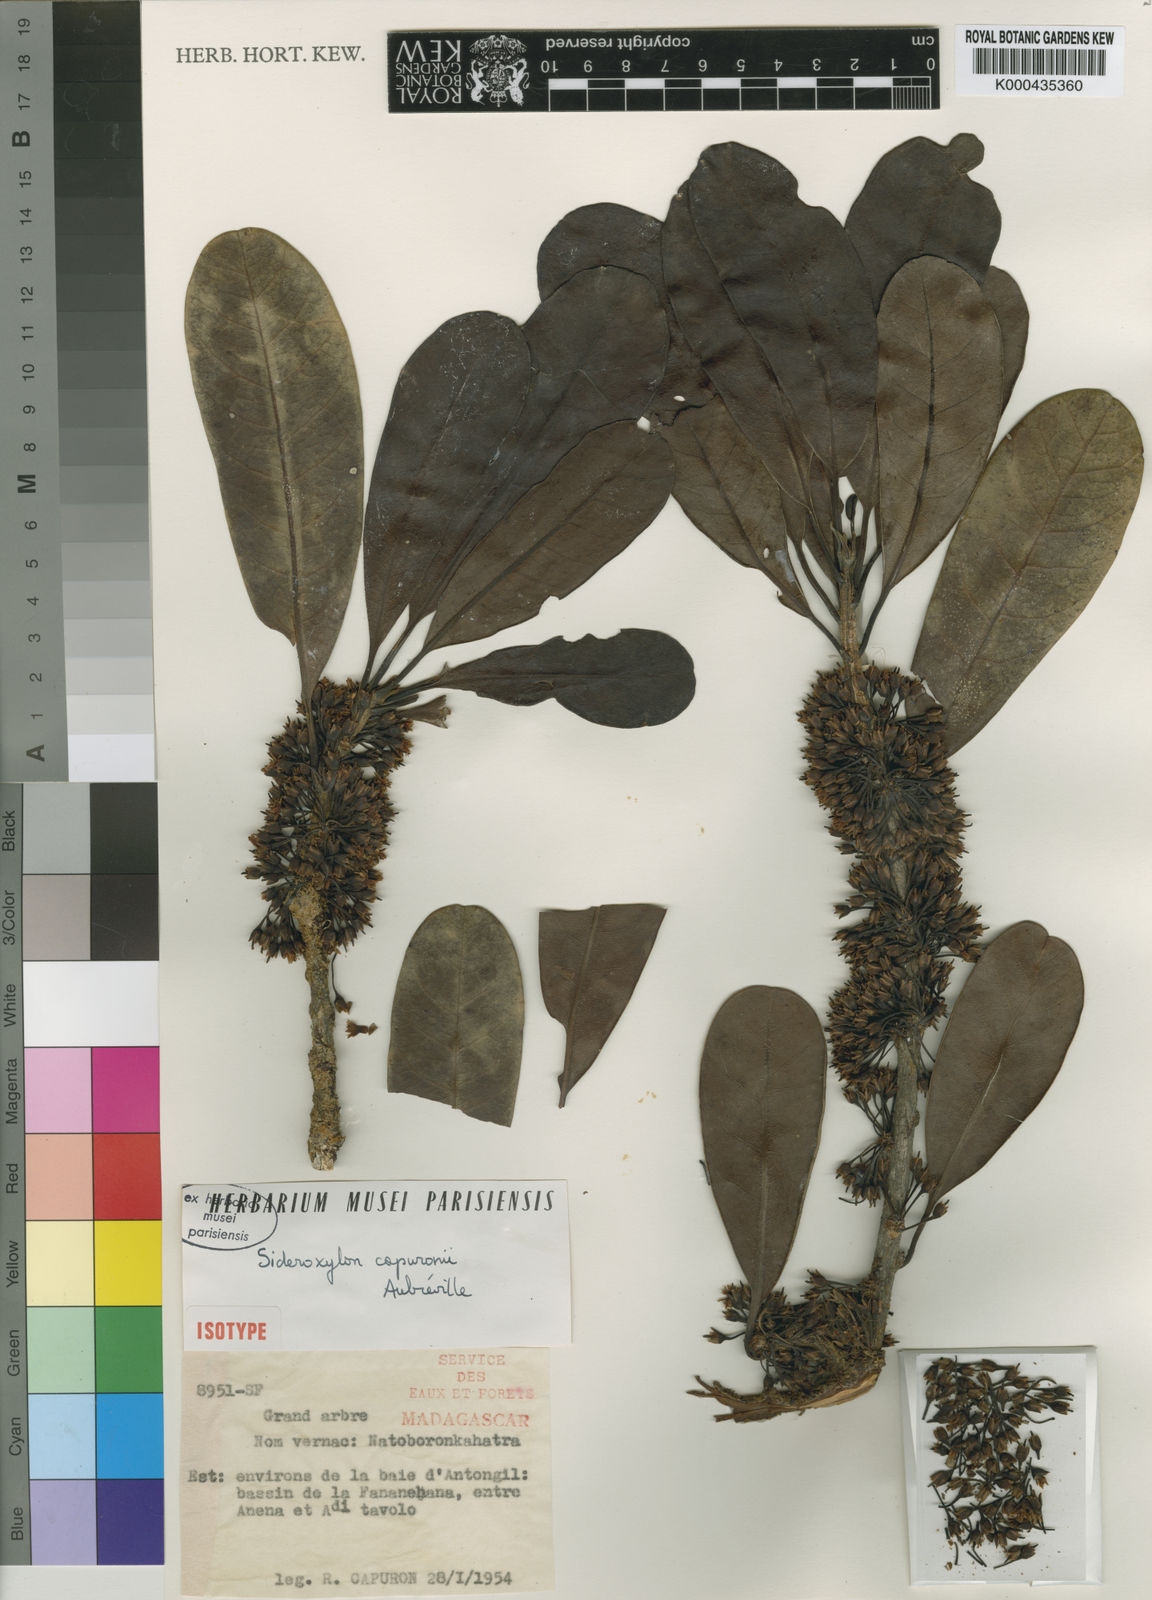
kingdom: Plantae
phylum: Tracheophyta
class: Magnoliopsida
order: Ericales
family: Sapotaceae
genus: Sideroxylon
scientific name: Sideroxylon
